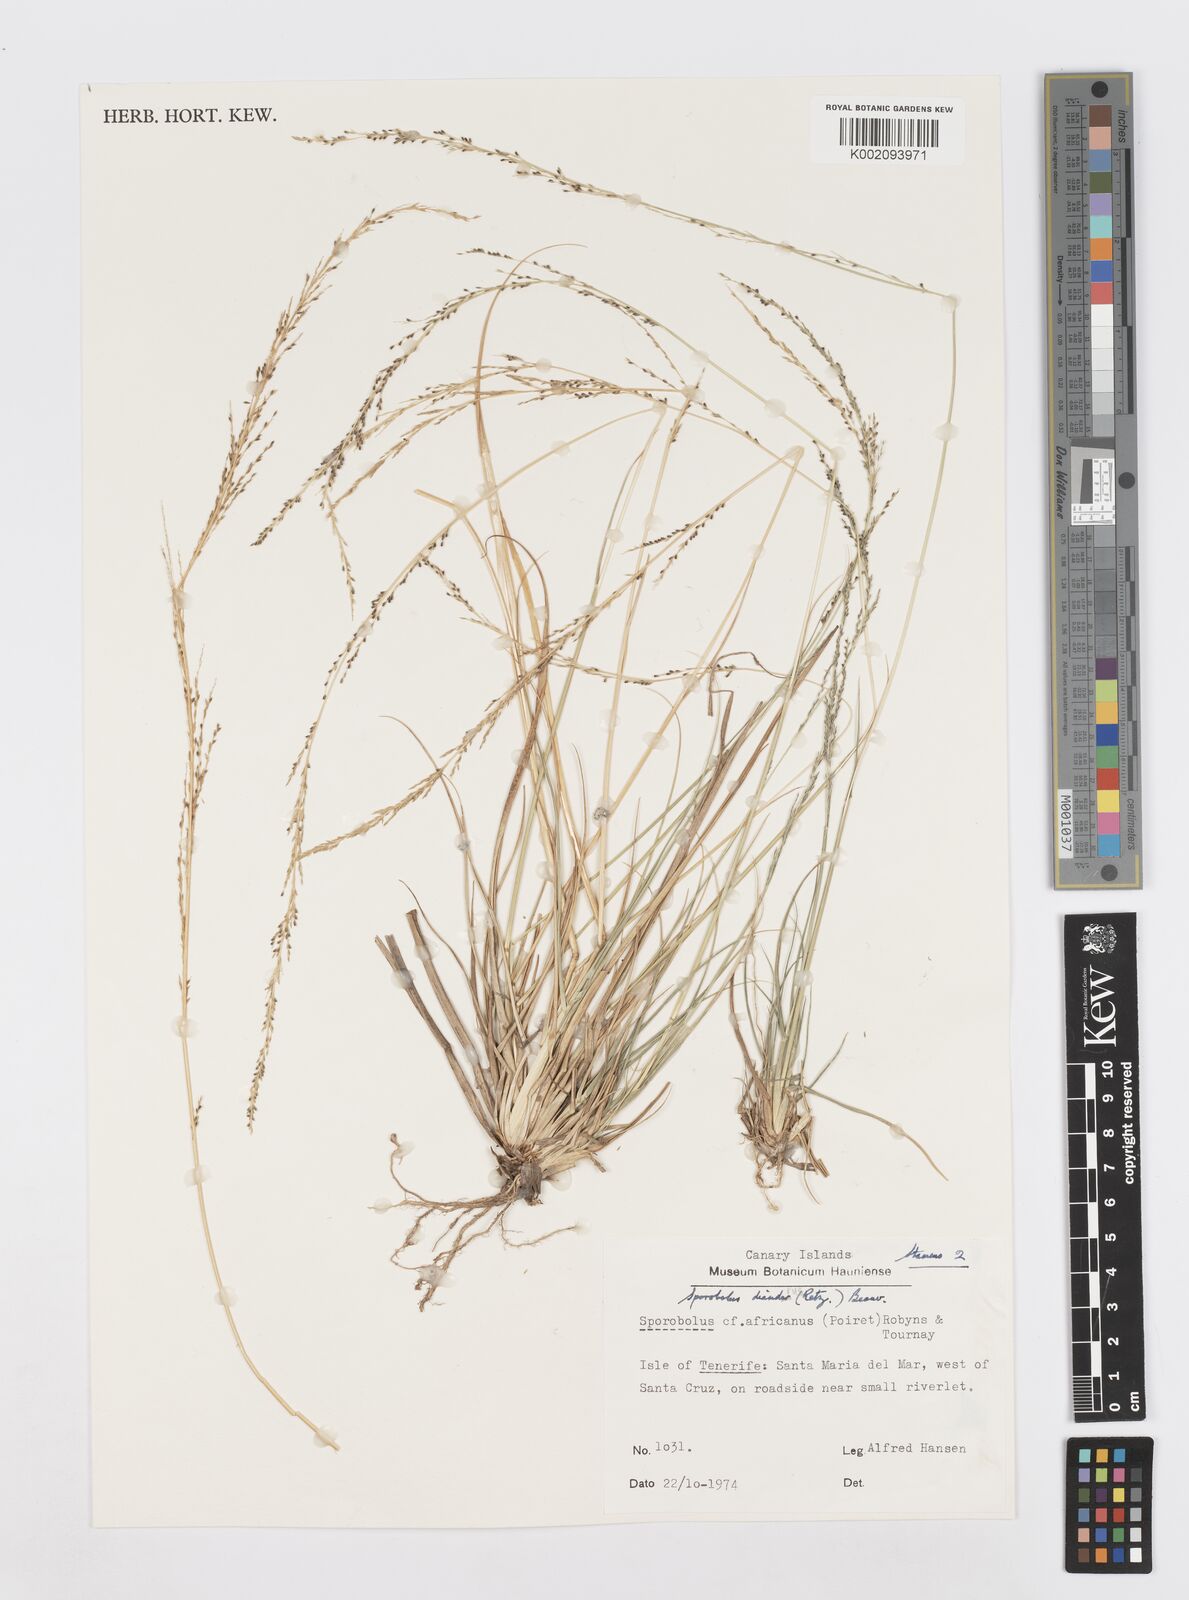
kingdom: Plantae
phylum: Tracheophyta
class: Liliopsida
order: Poales
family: Poaceae
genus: Sporobolus
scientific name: Sporobolus diandrus
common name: Tussock dropseed
